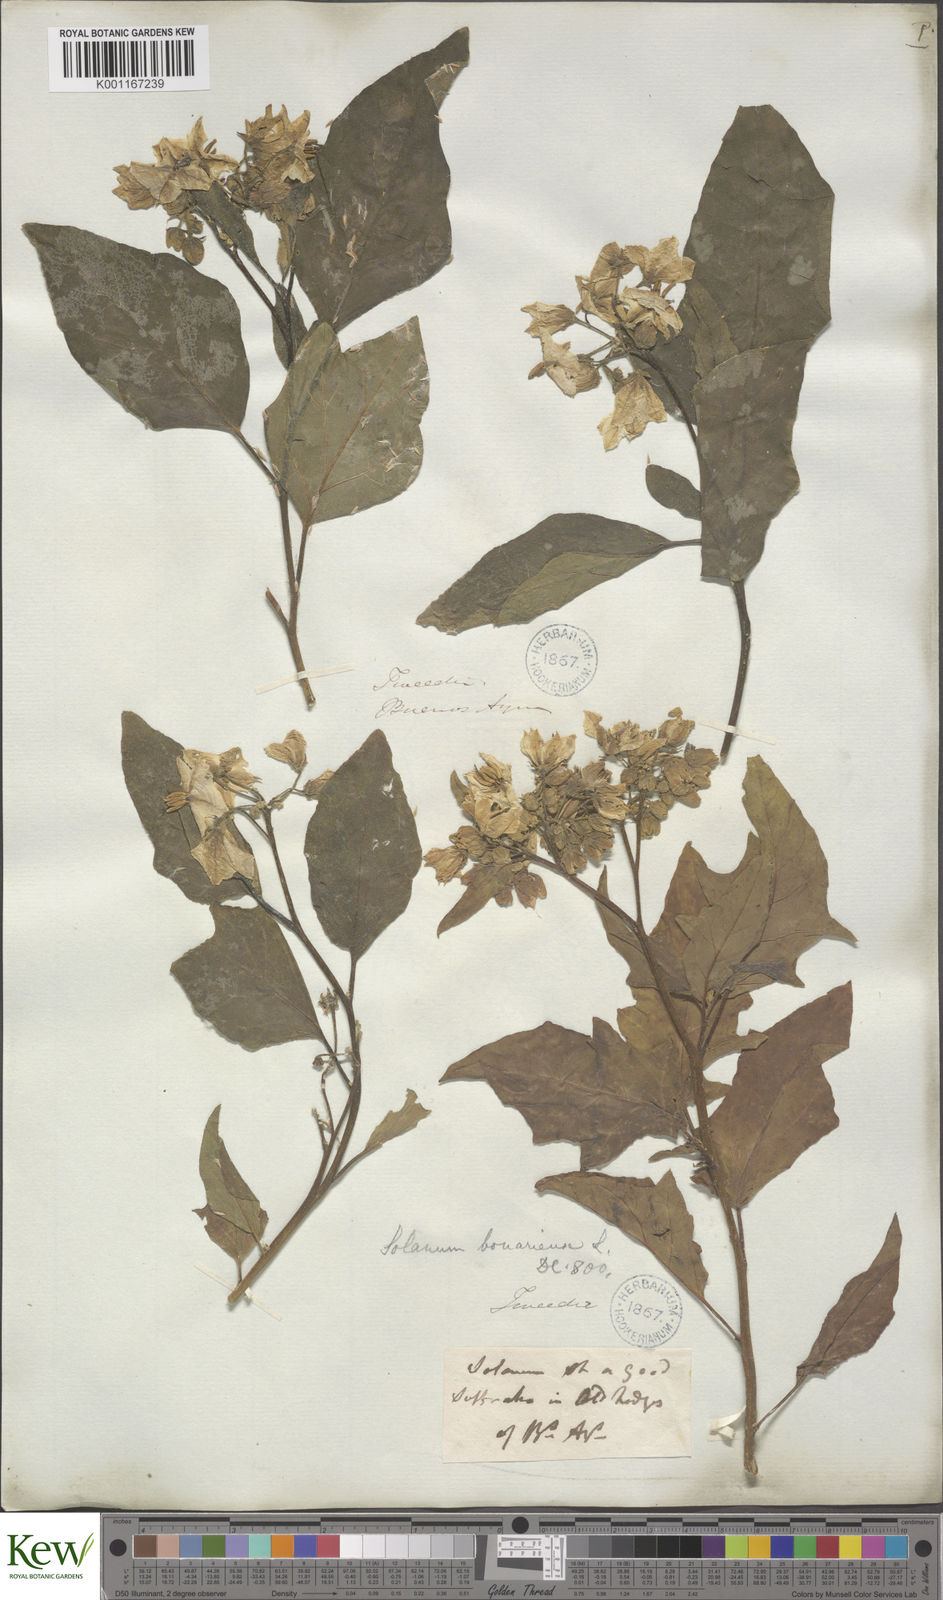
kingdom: Plantae
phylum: Tracheophyta
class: Magnoliopsida
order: Solanales
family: Solanaceae
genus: Solanum
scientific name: Solanum bonariense
